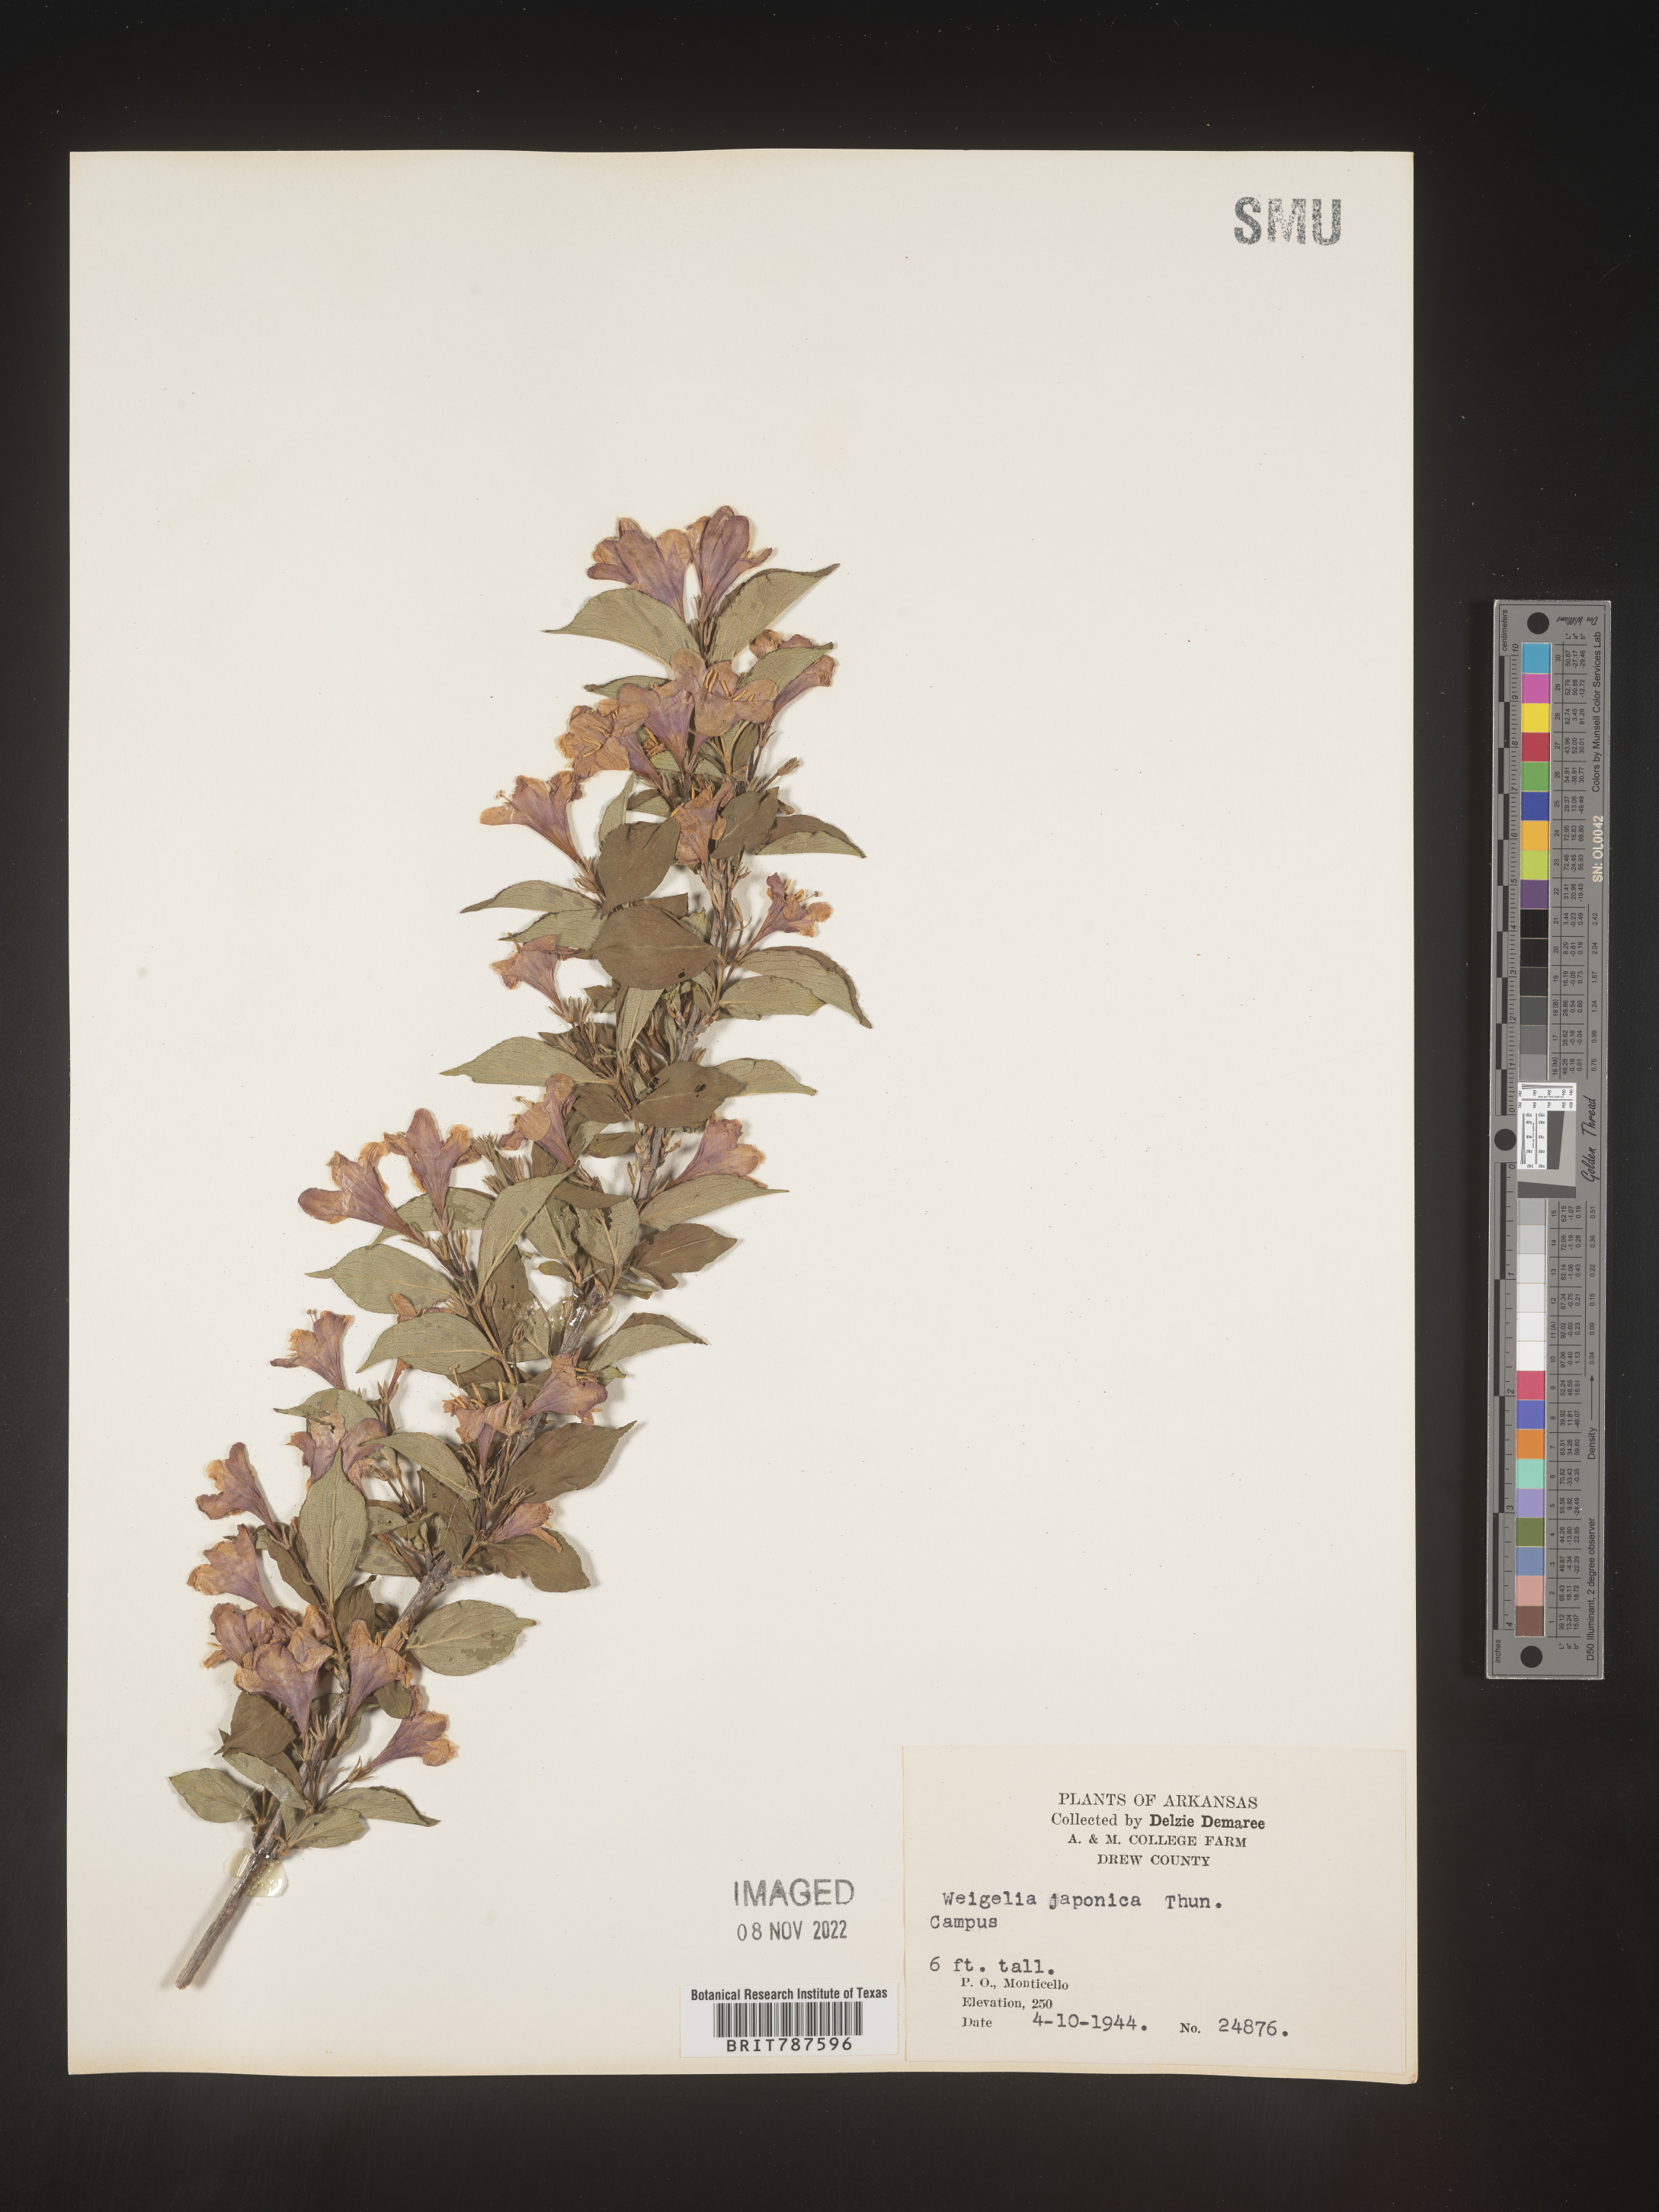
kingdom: Plantae
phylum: Tracheophyta
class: Magnoliopsida
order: Dipsacales
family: Caprifoliaceae
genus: Weigela
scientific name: Weigela
